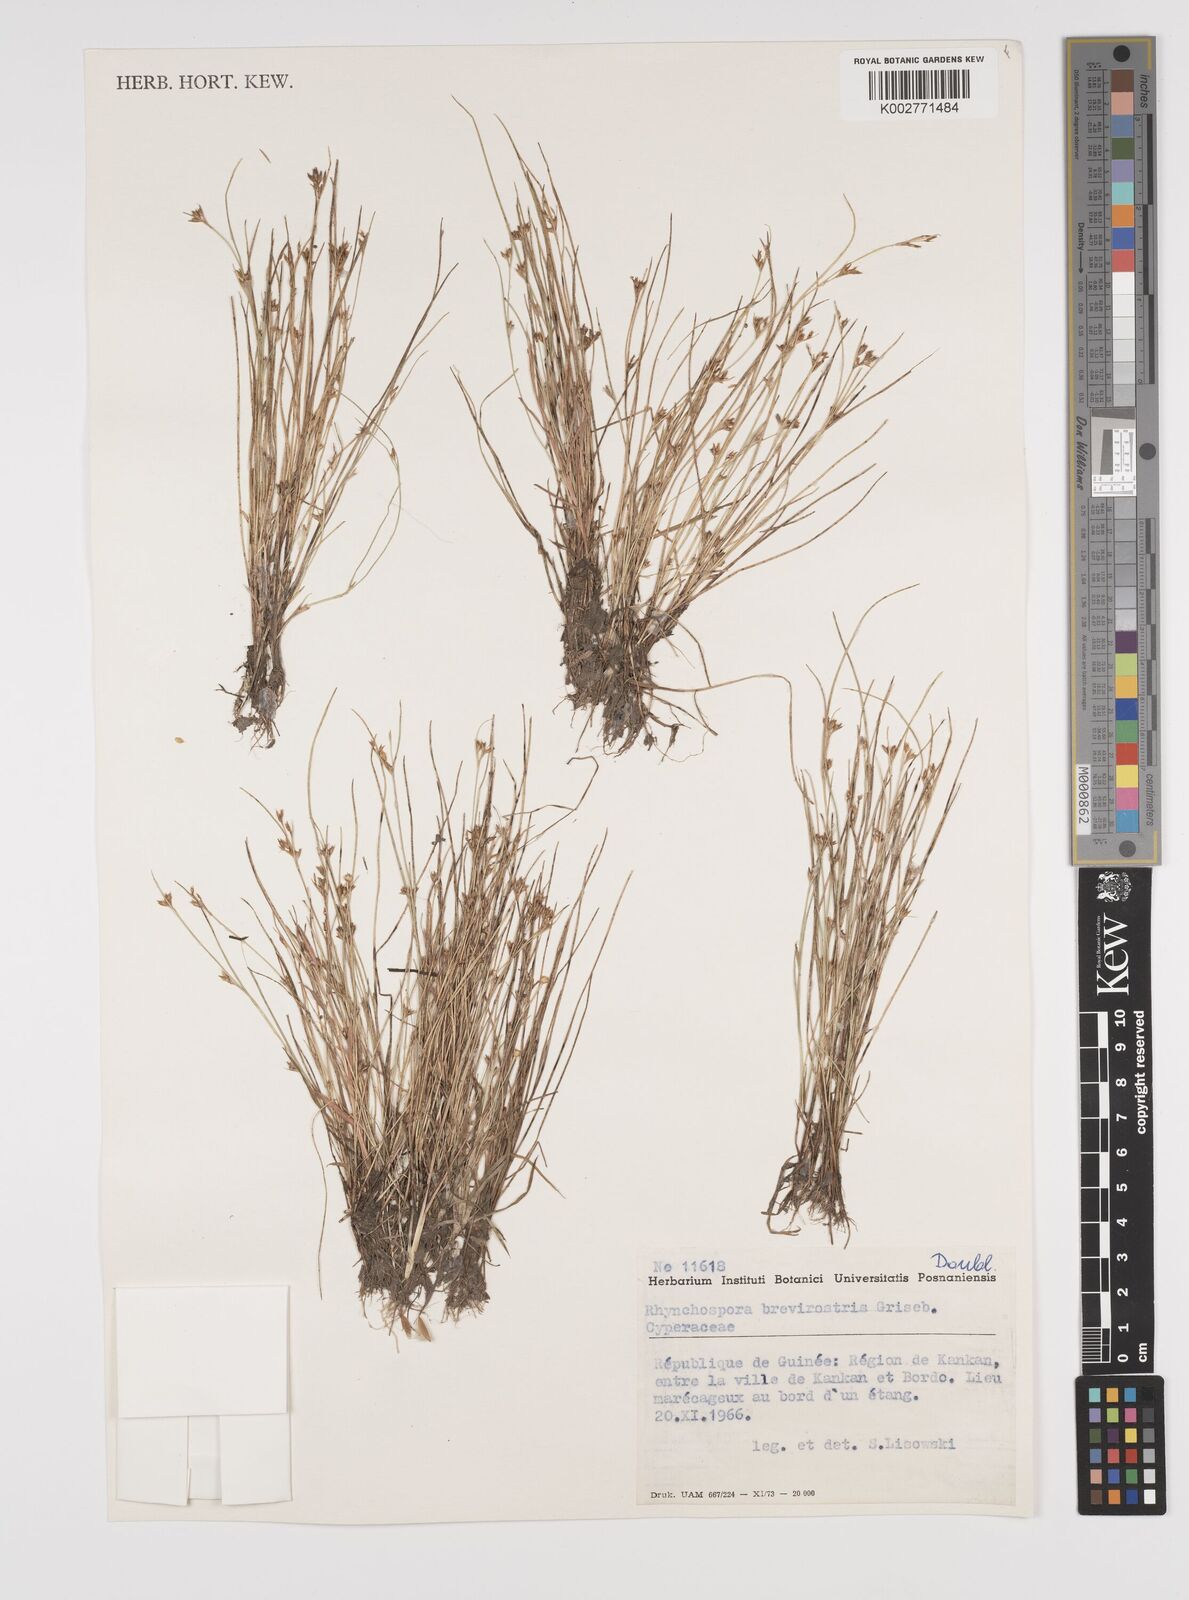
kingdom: Plantae
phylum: Tracheophyta
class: Liliopsida
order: Poales
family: Cyperaceae
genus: Rhynchospora
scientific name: Rhynchospora brevirostris
